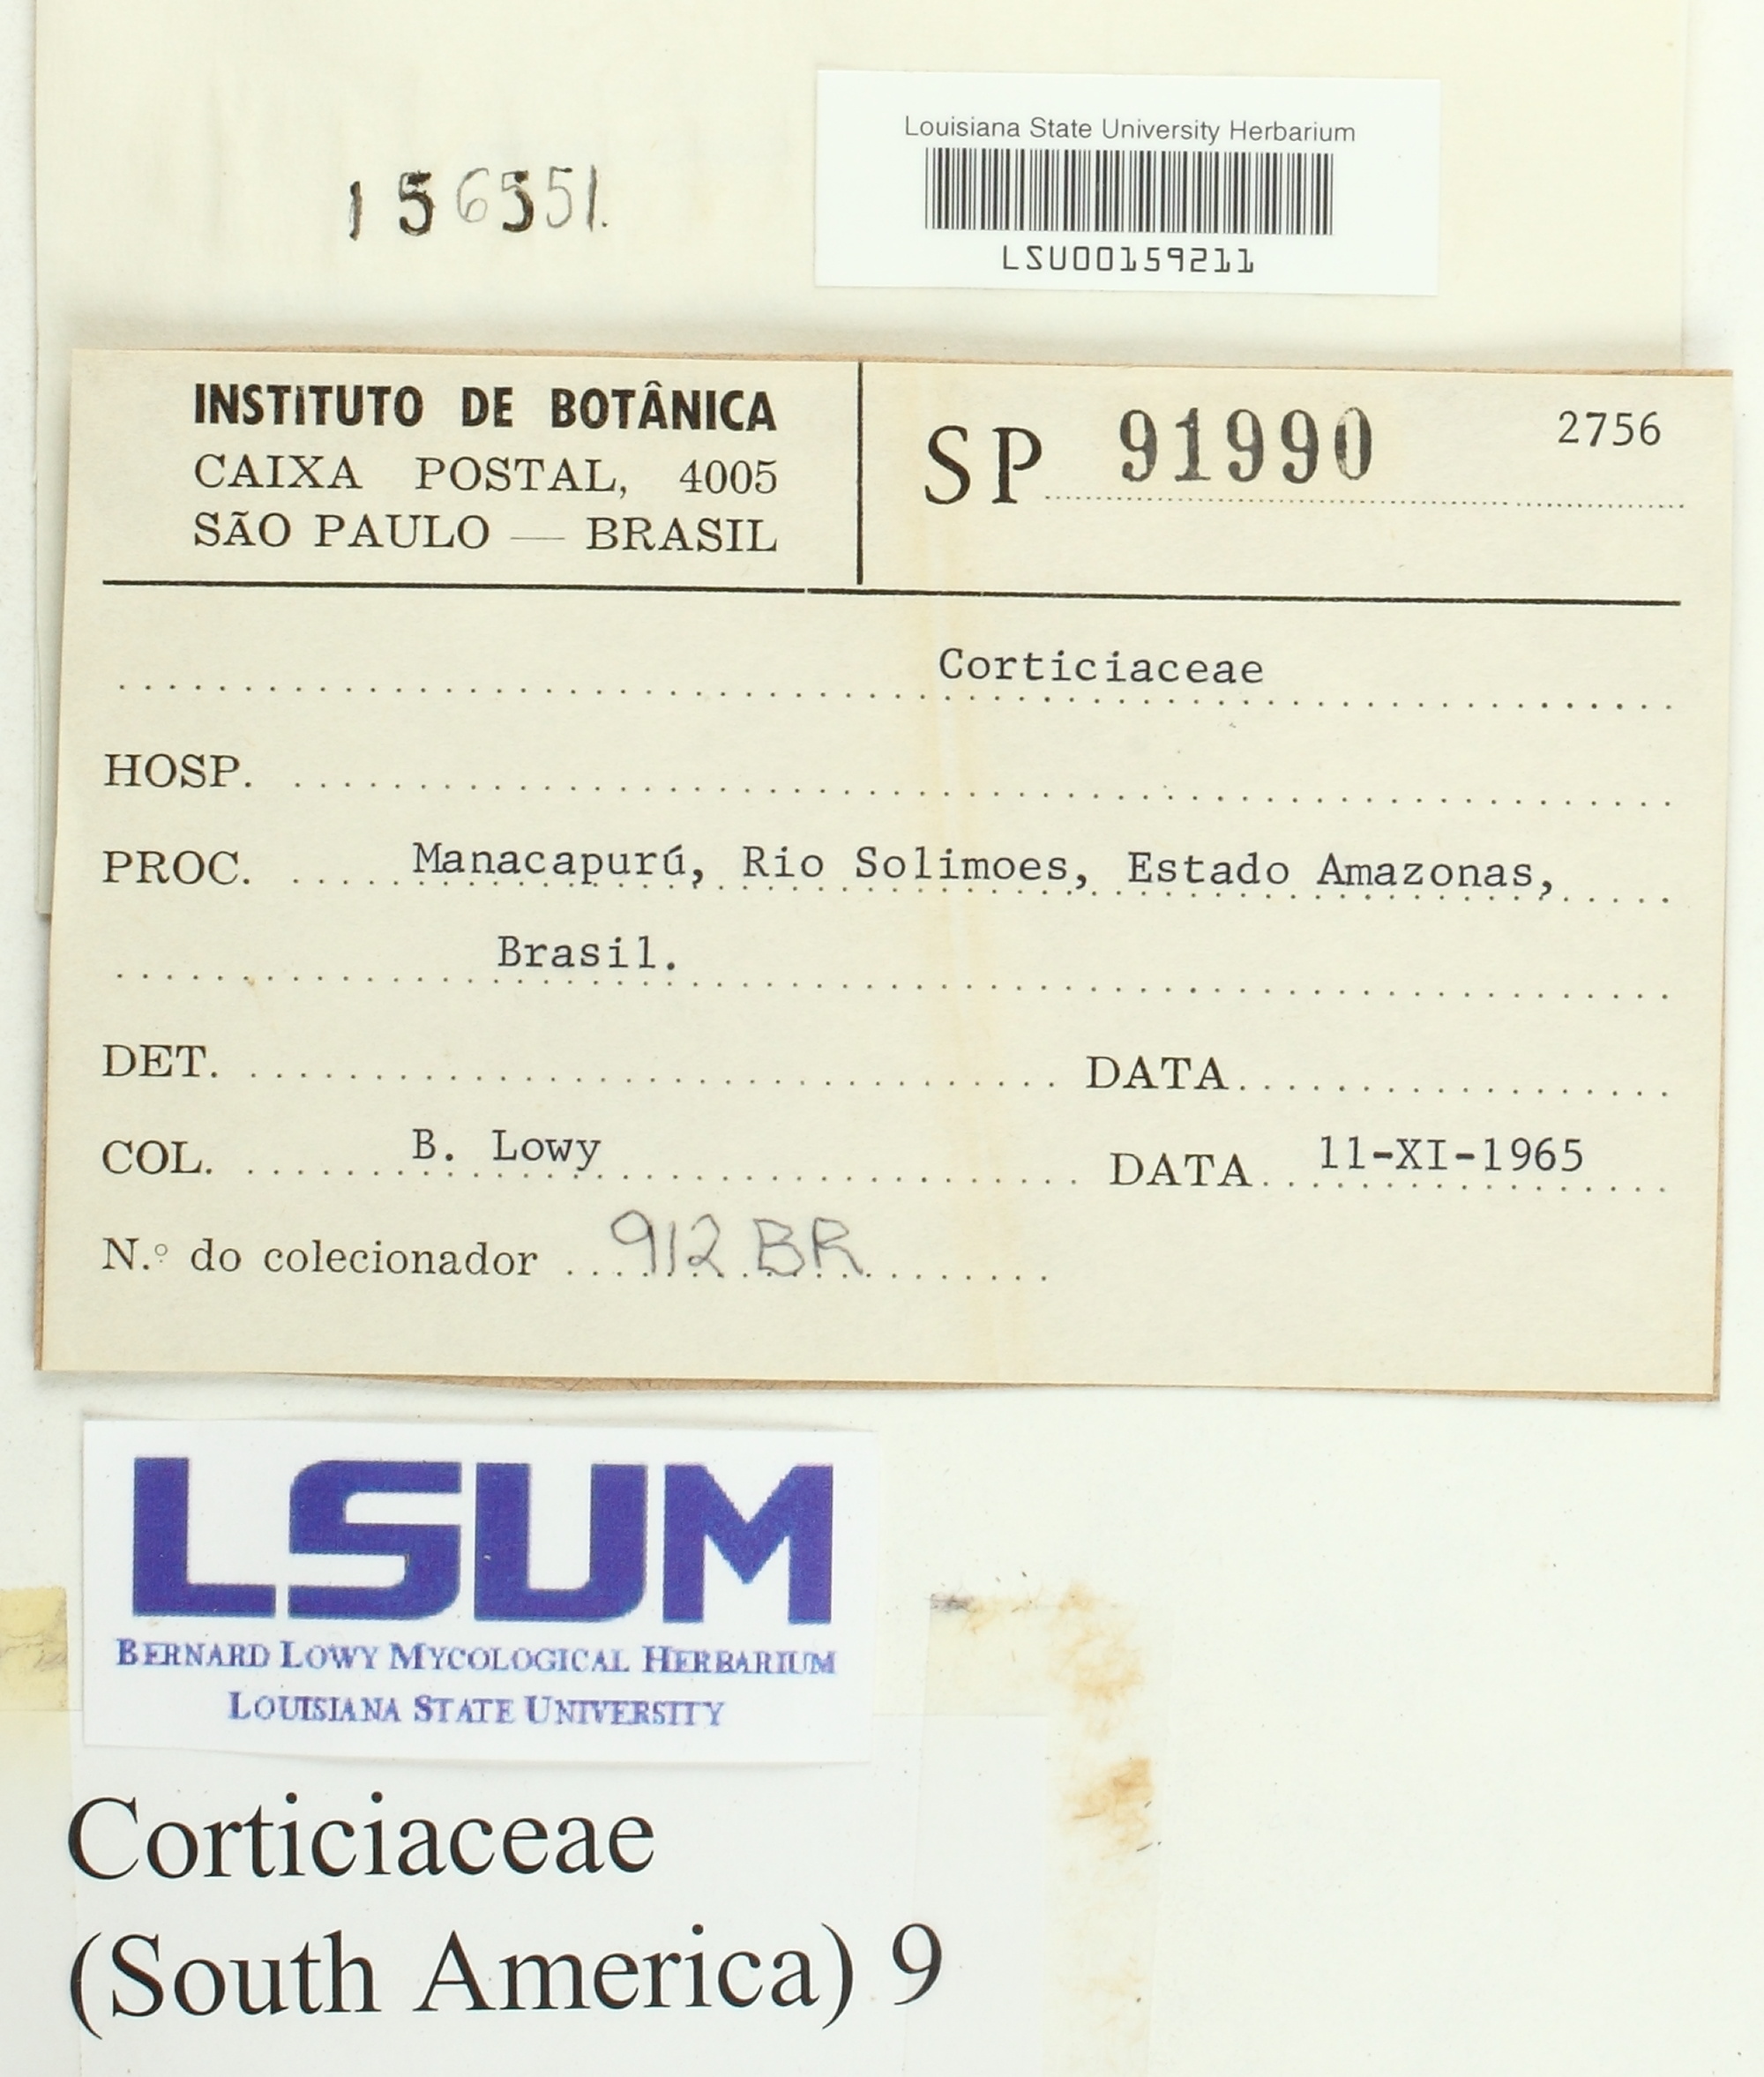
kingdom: Fungi
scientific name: Fungi
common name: Fungi
